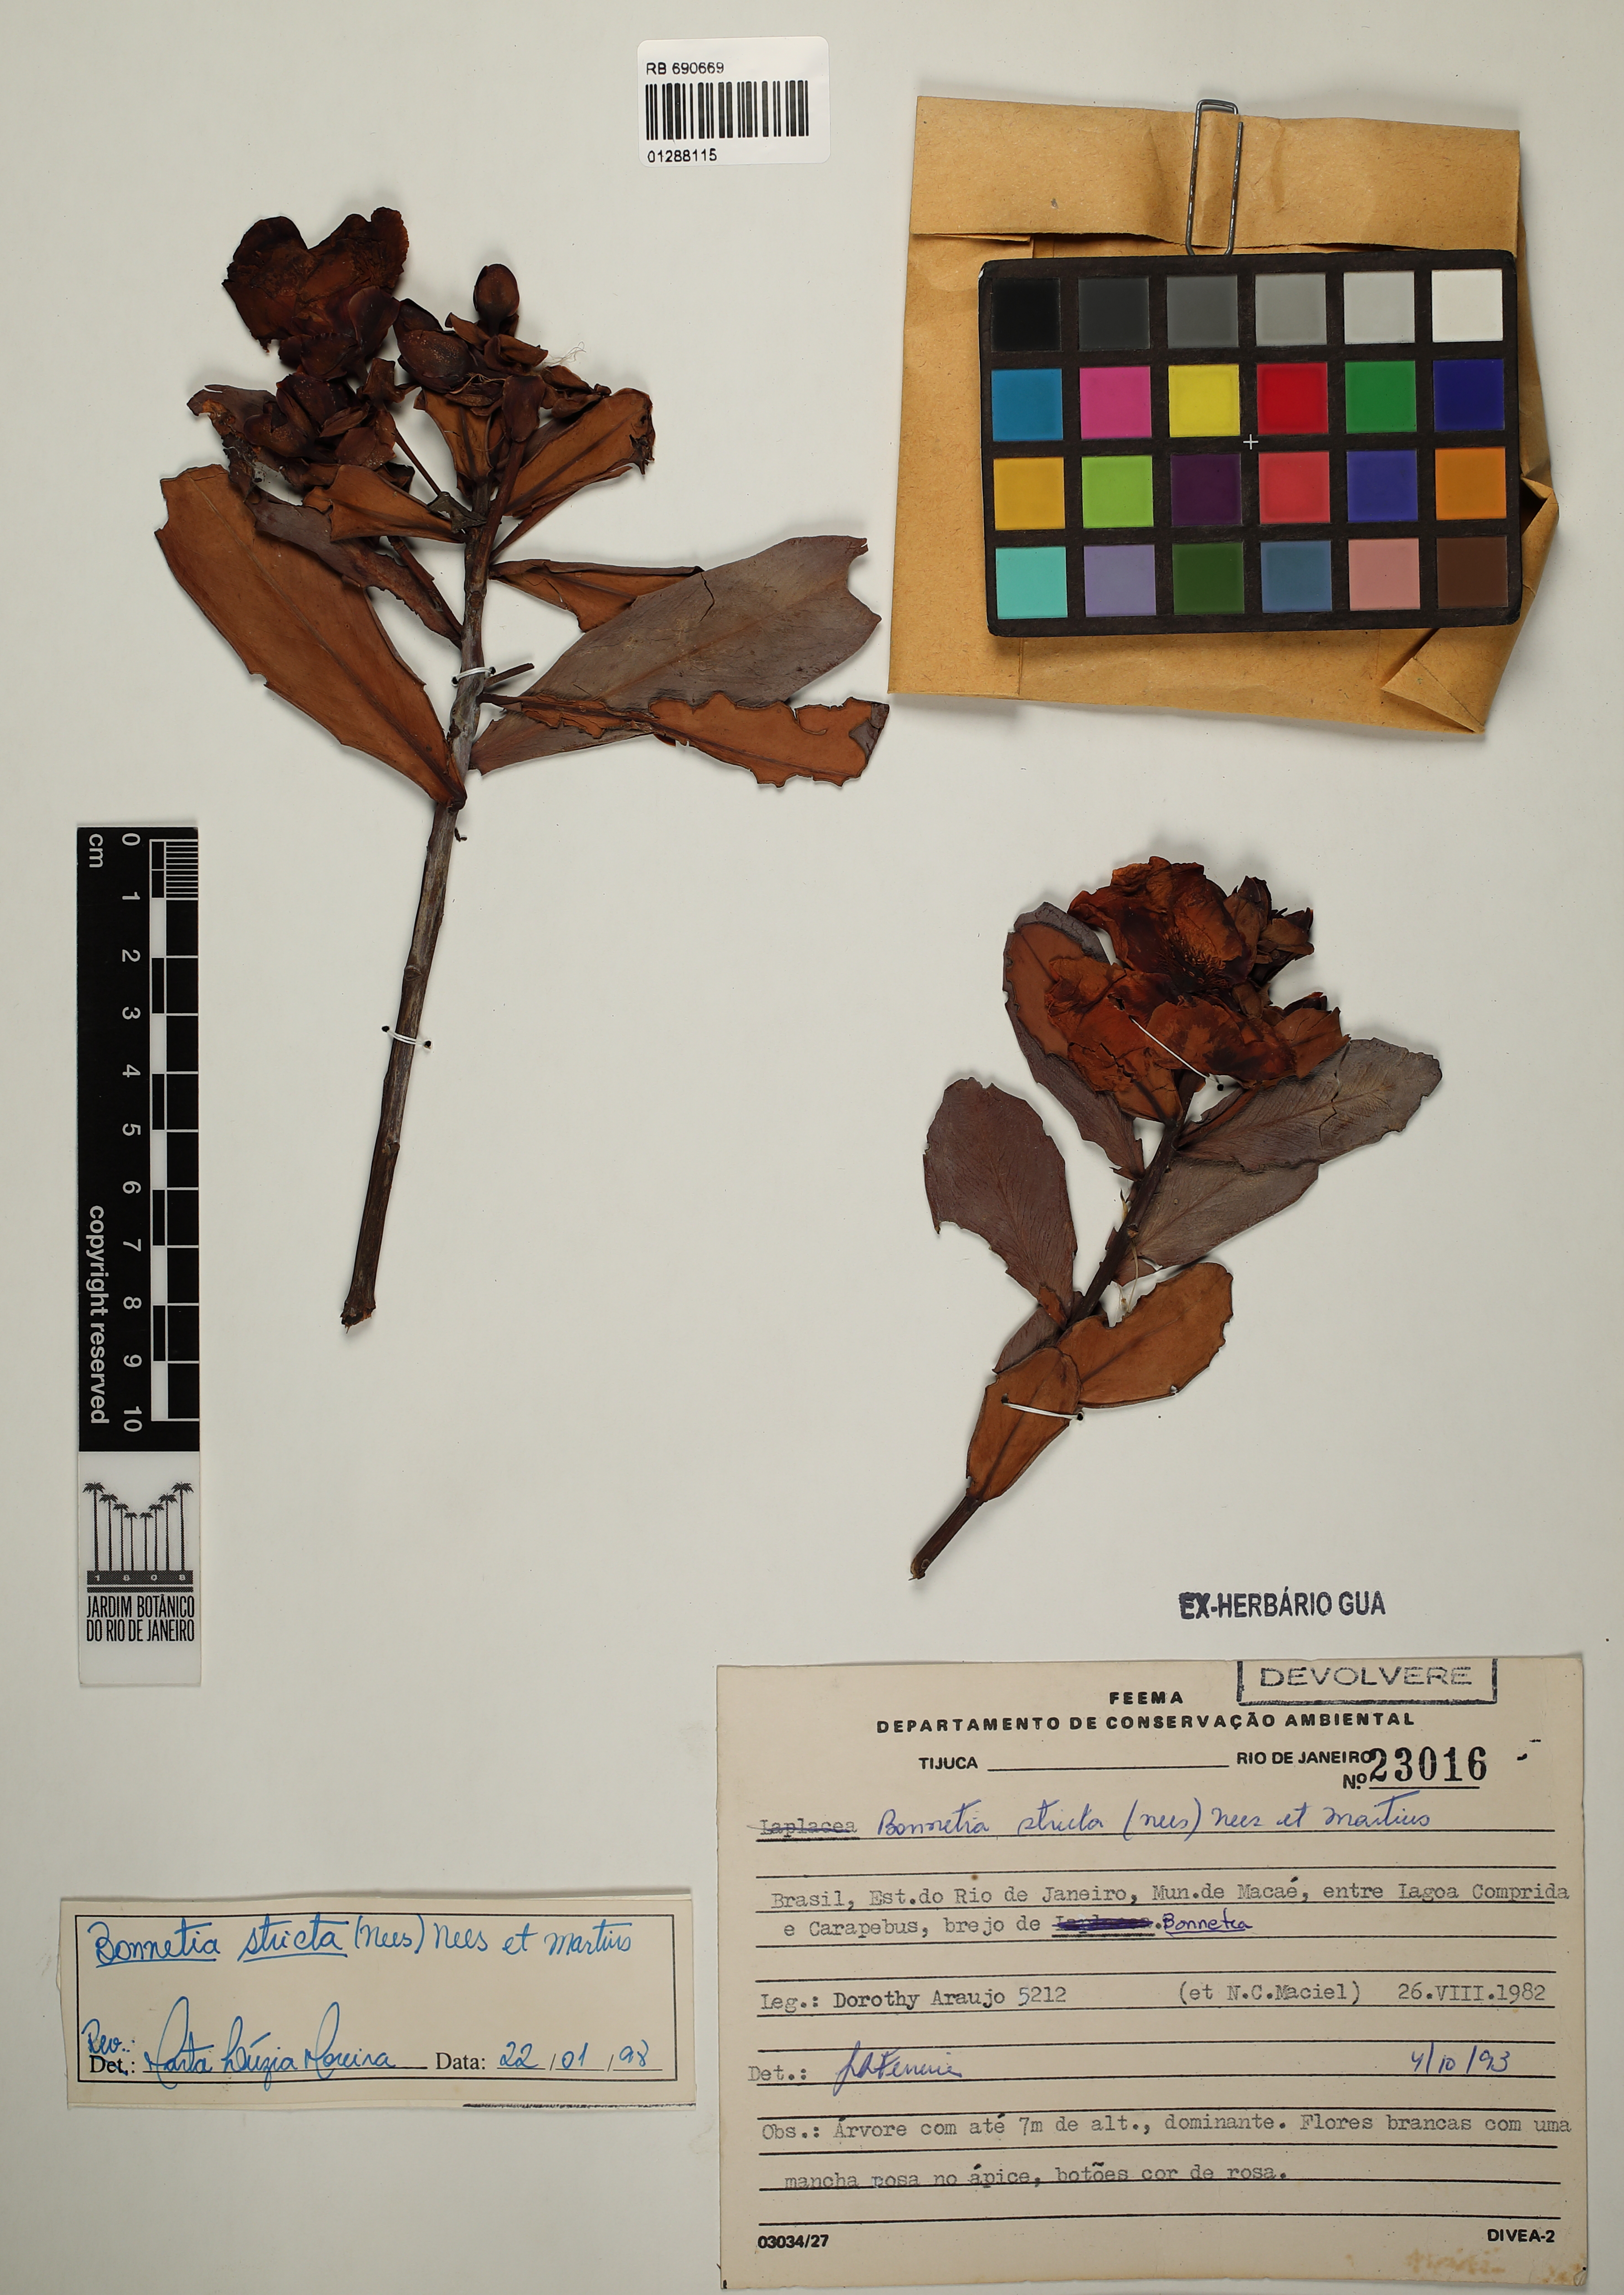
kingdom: Plantae
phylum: Tracheophyta
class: Magnoliopsida
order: Malpighiales
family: Bonnetiaceae
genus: Bonnetia
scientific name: Bonnetia stricta
